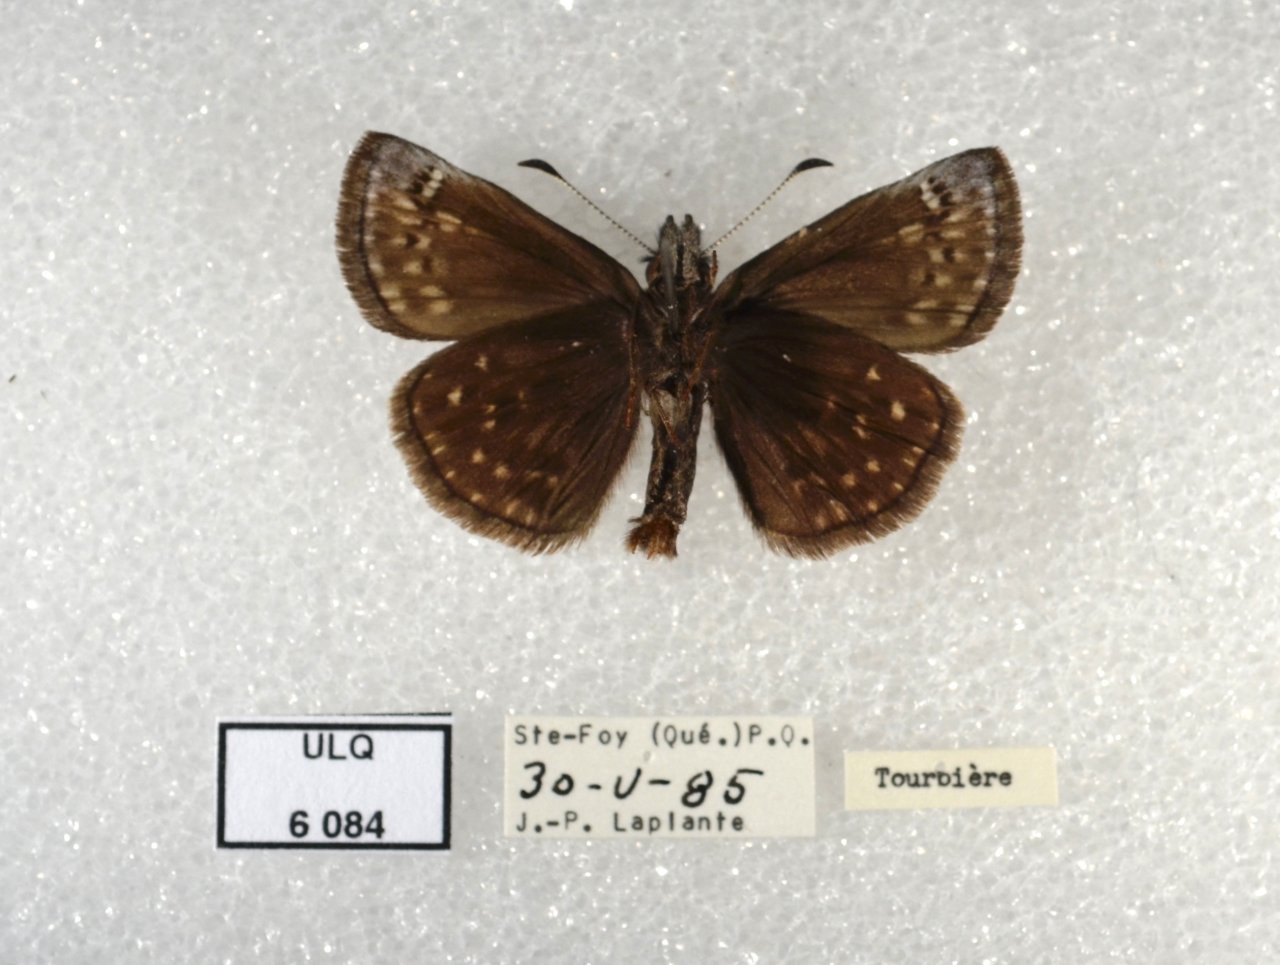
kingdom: Animalia
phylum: Arthropoda
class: Insecta
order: Lepidoptera
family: Hesperiidae
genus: Erynnis
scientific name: Erynnis icelus
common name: Dreamy Duskywing
